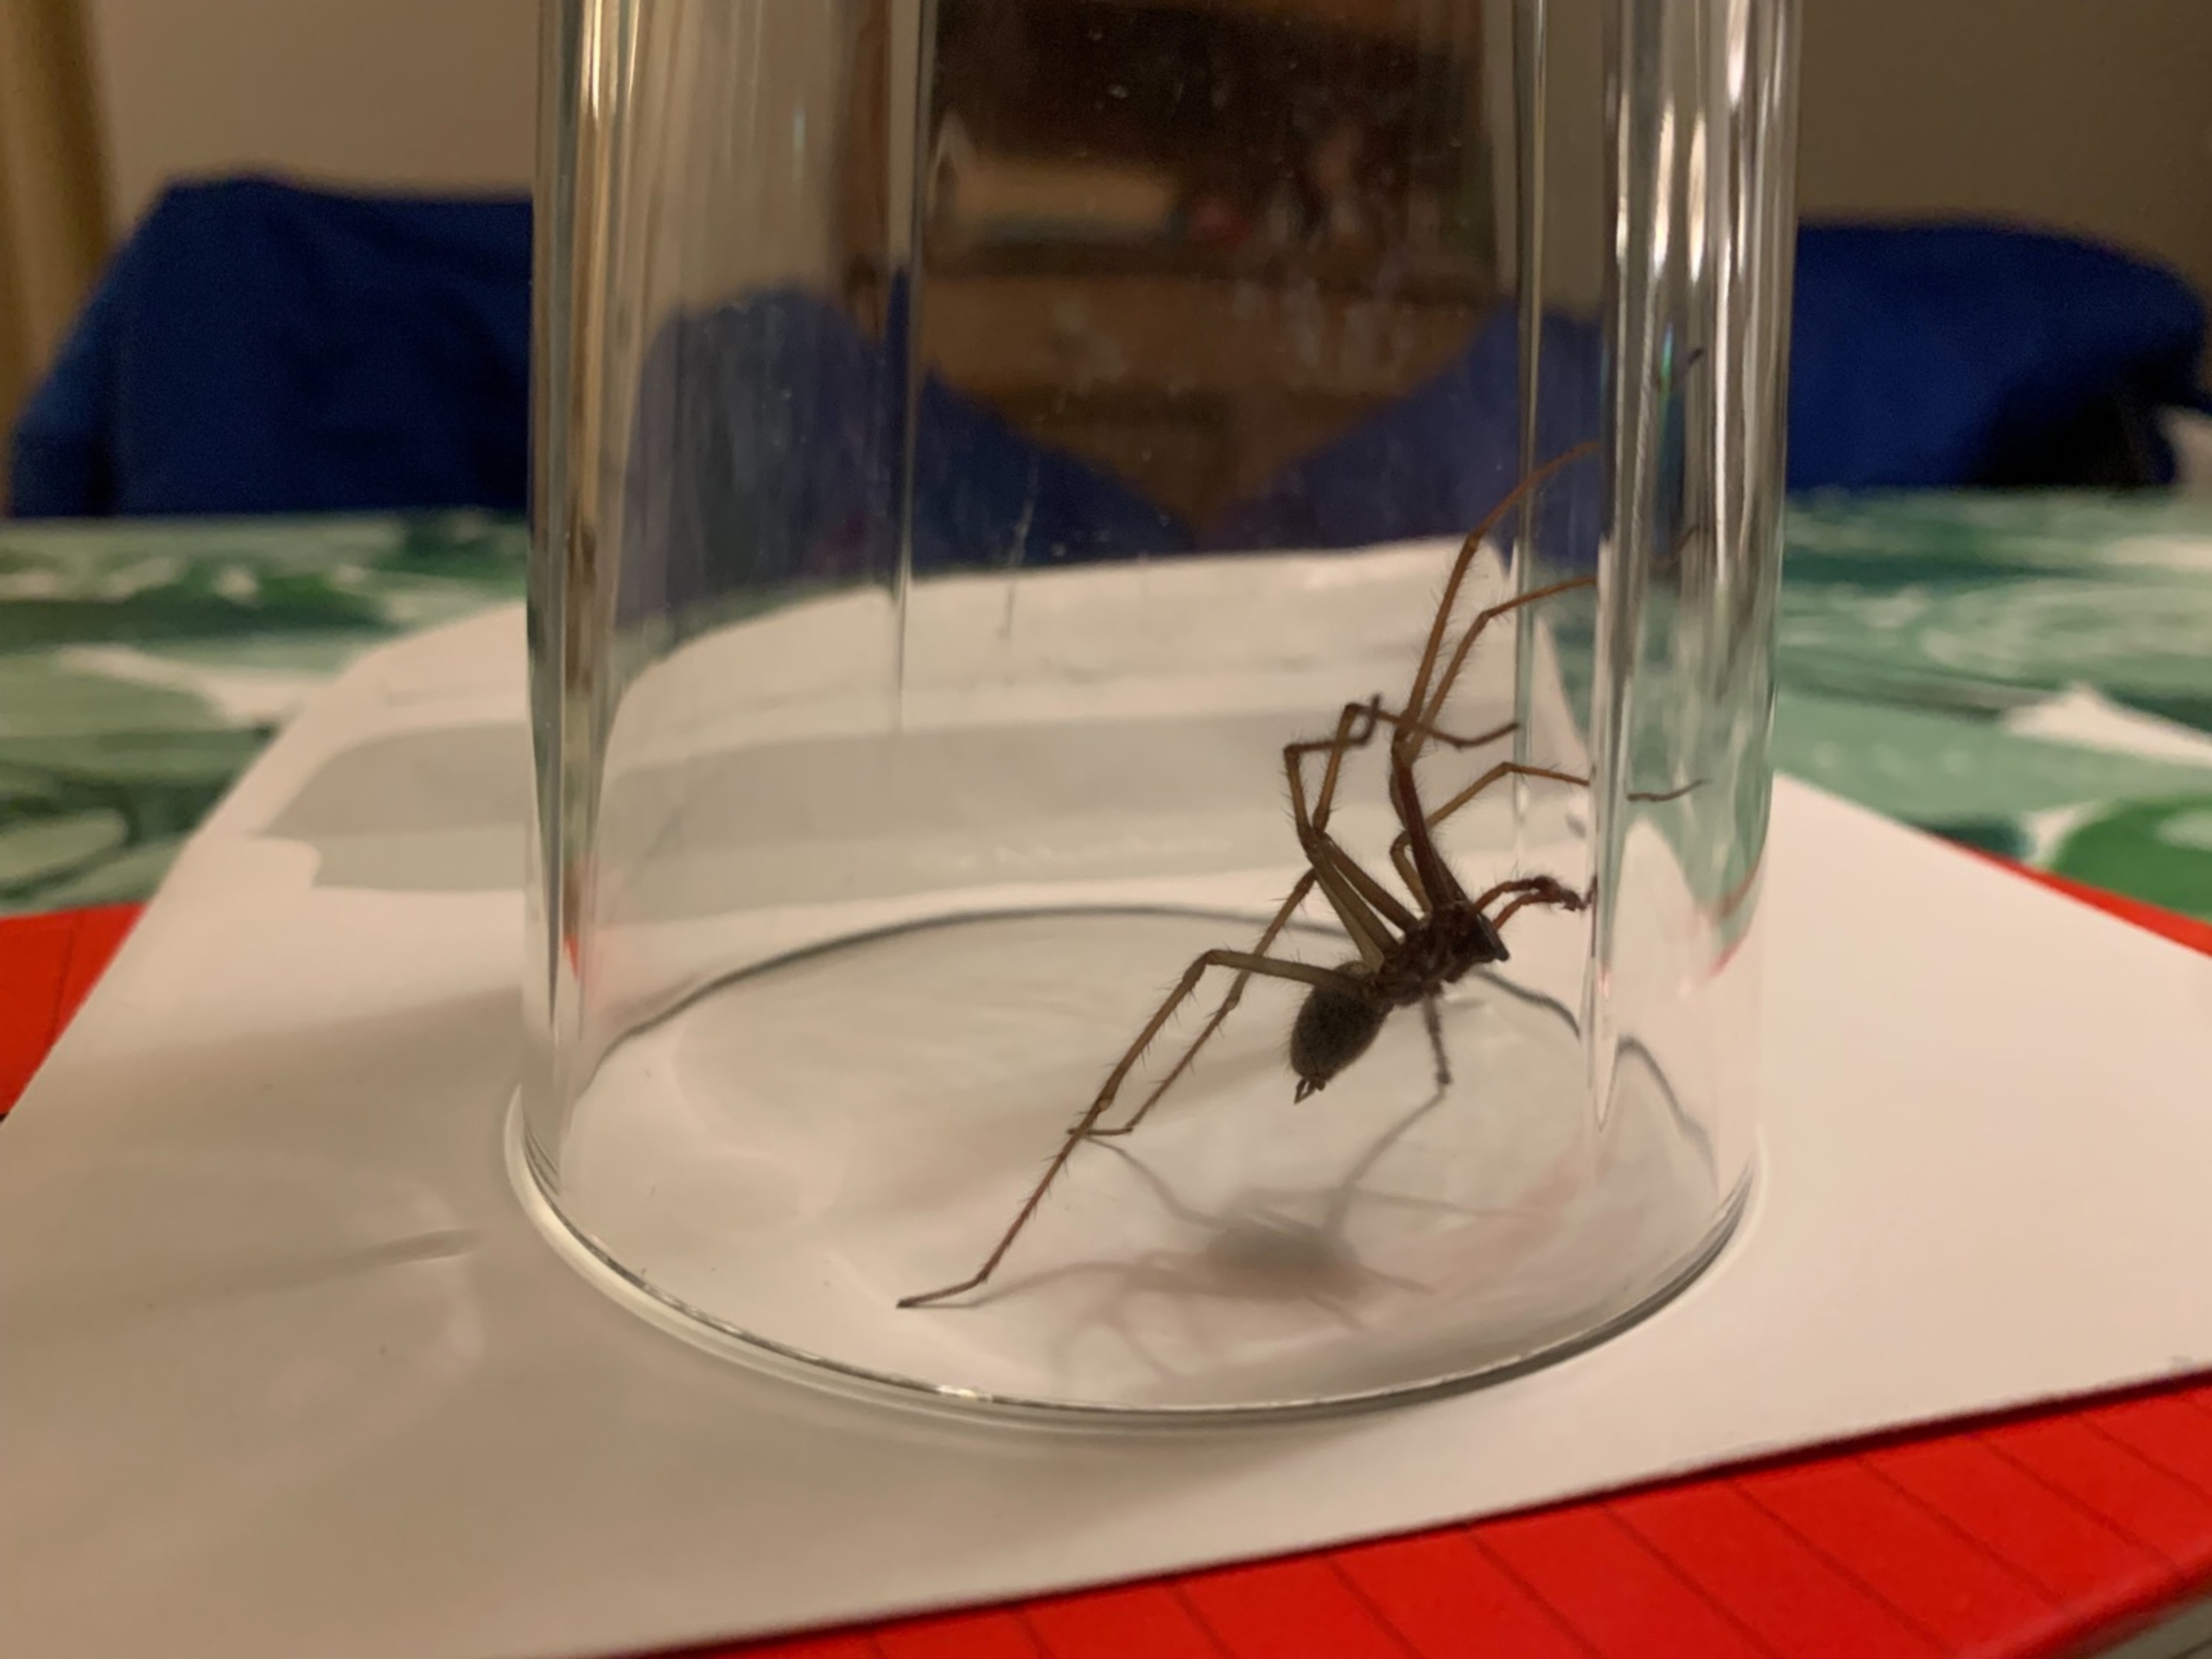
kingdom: Animalia
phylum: Arthropoda
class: Arachnida
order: Araneae
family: Agelenidae
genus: Eratigena
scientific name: Eratigena atrica
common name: Stor husedderkop
